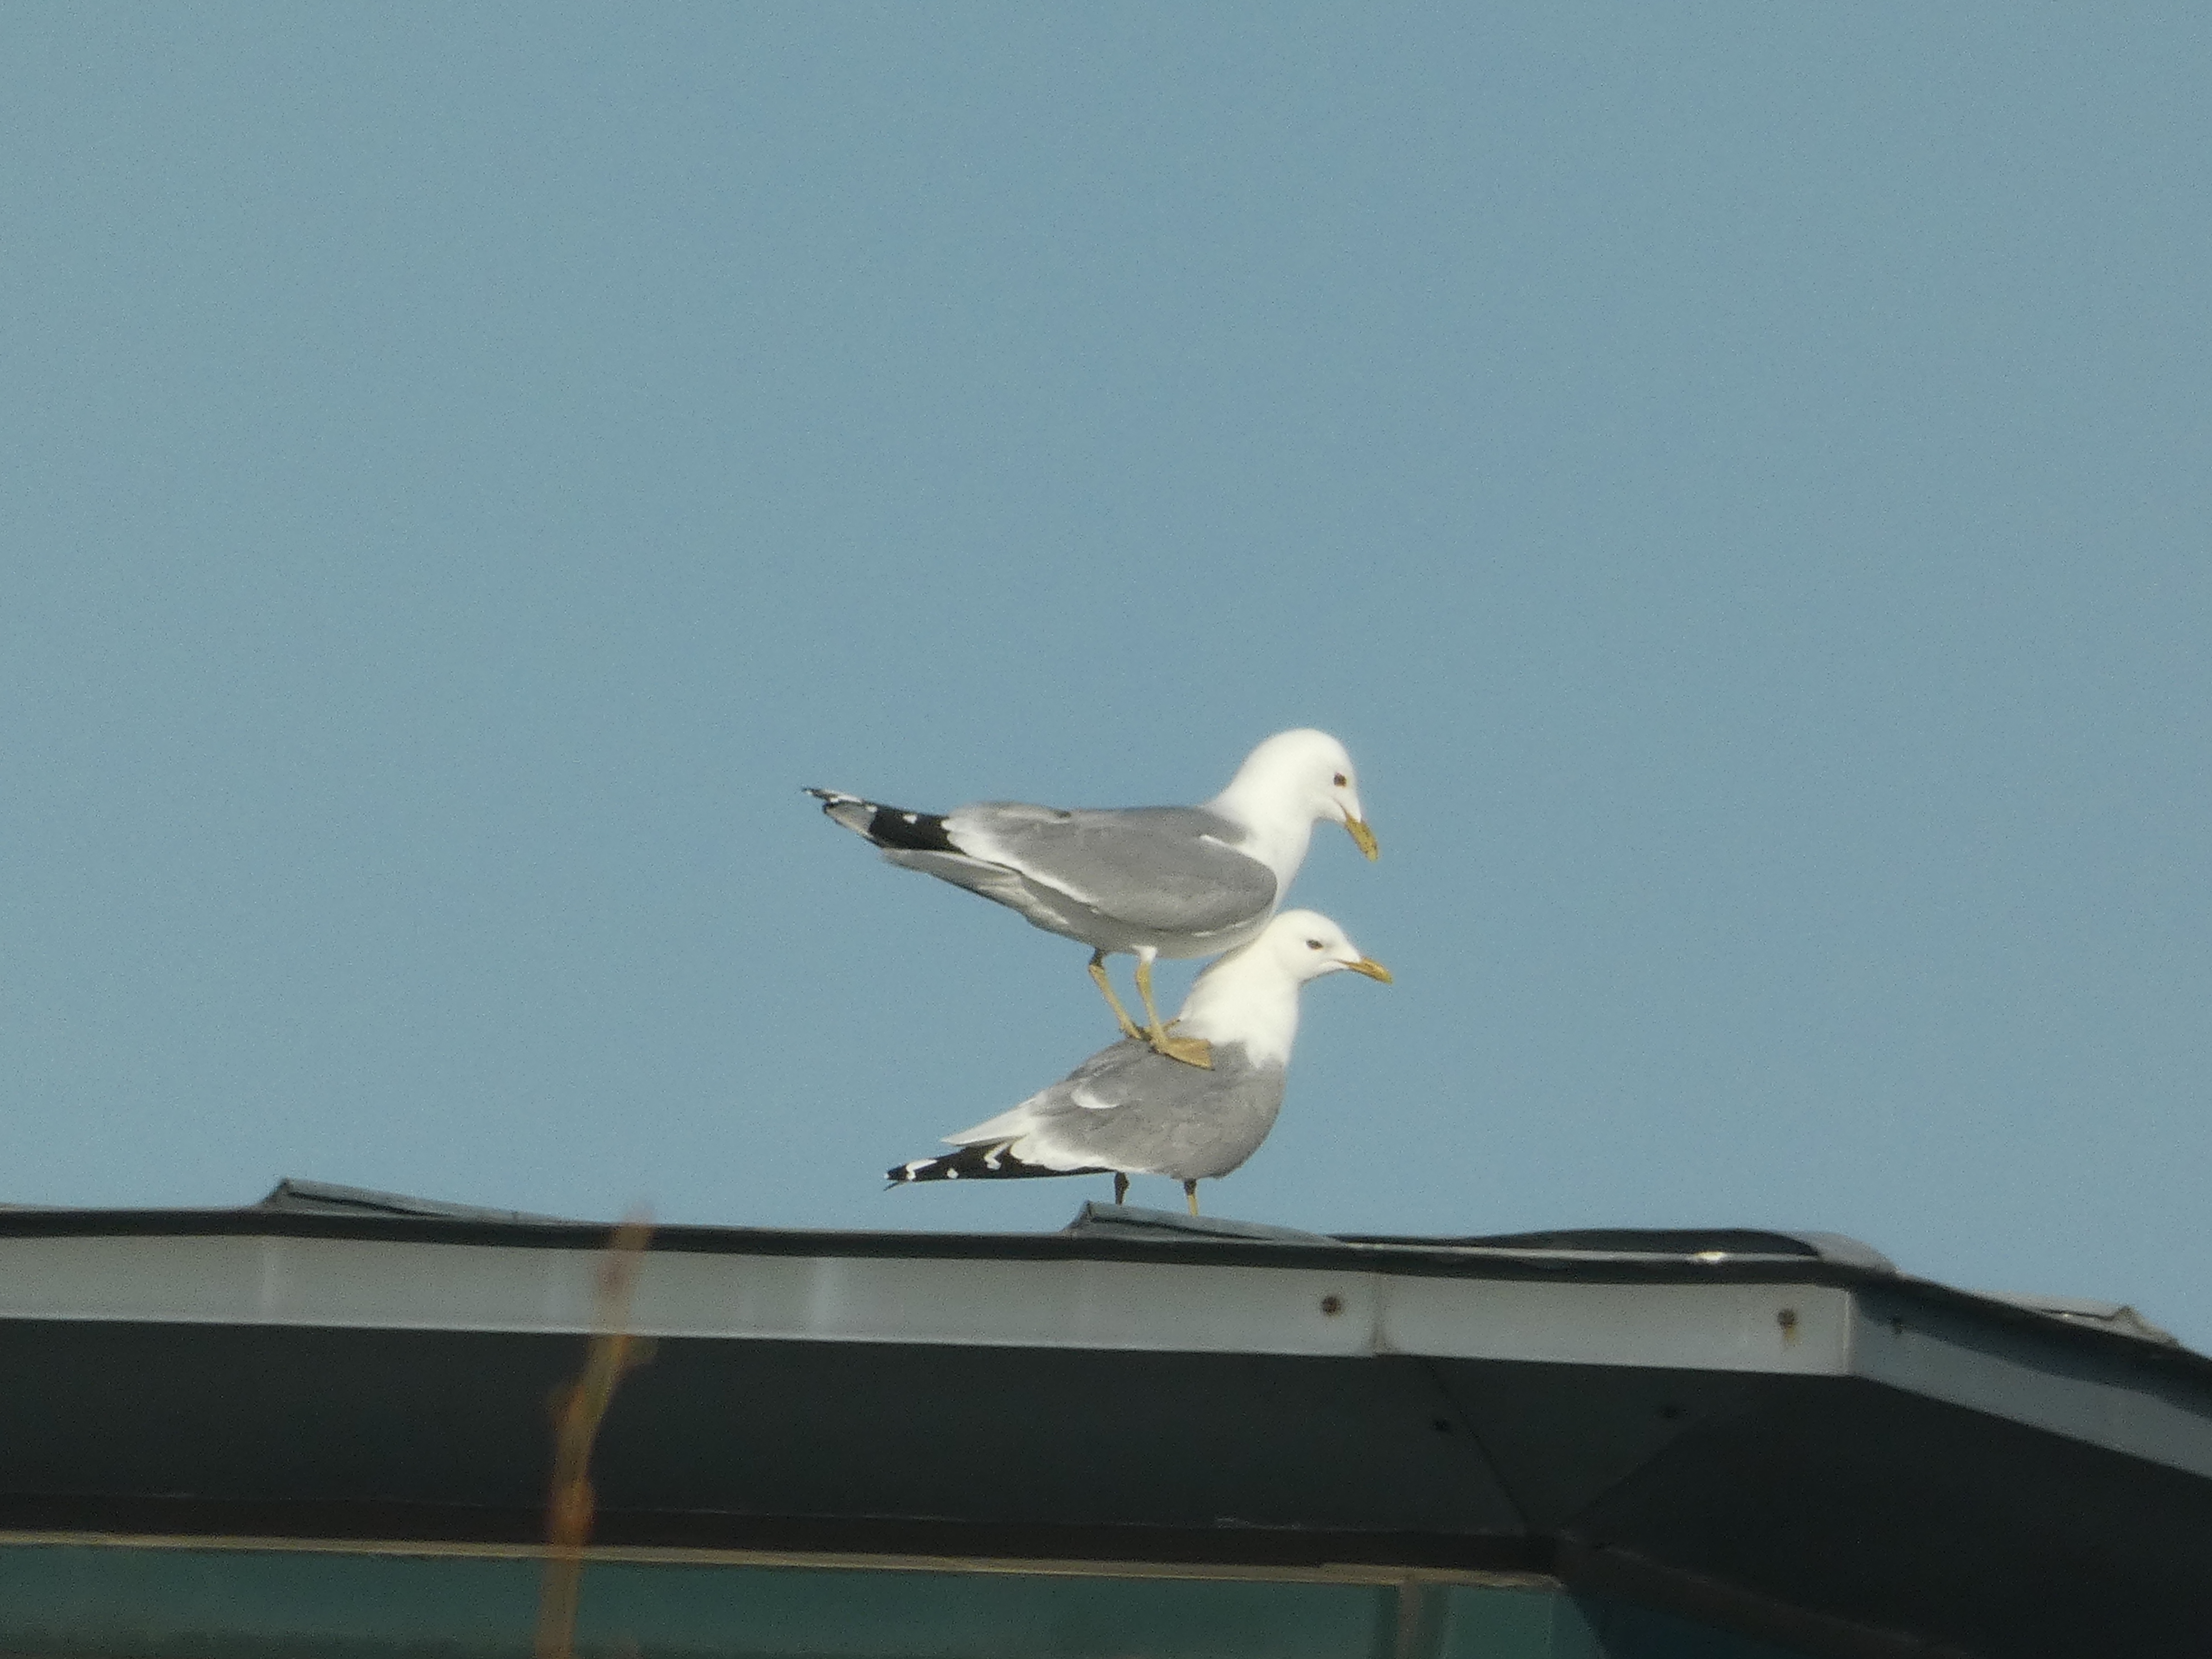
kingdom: Animalia
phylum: Chordata
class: Aves
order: Charadriiformes
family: Laridae
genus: Larus
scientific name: Larus canus
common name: Stormmåge
